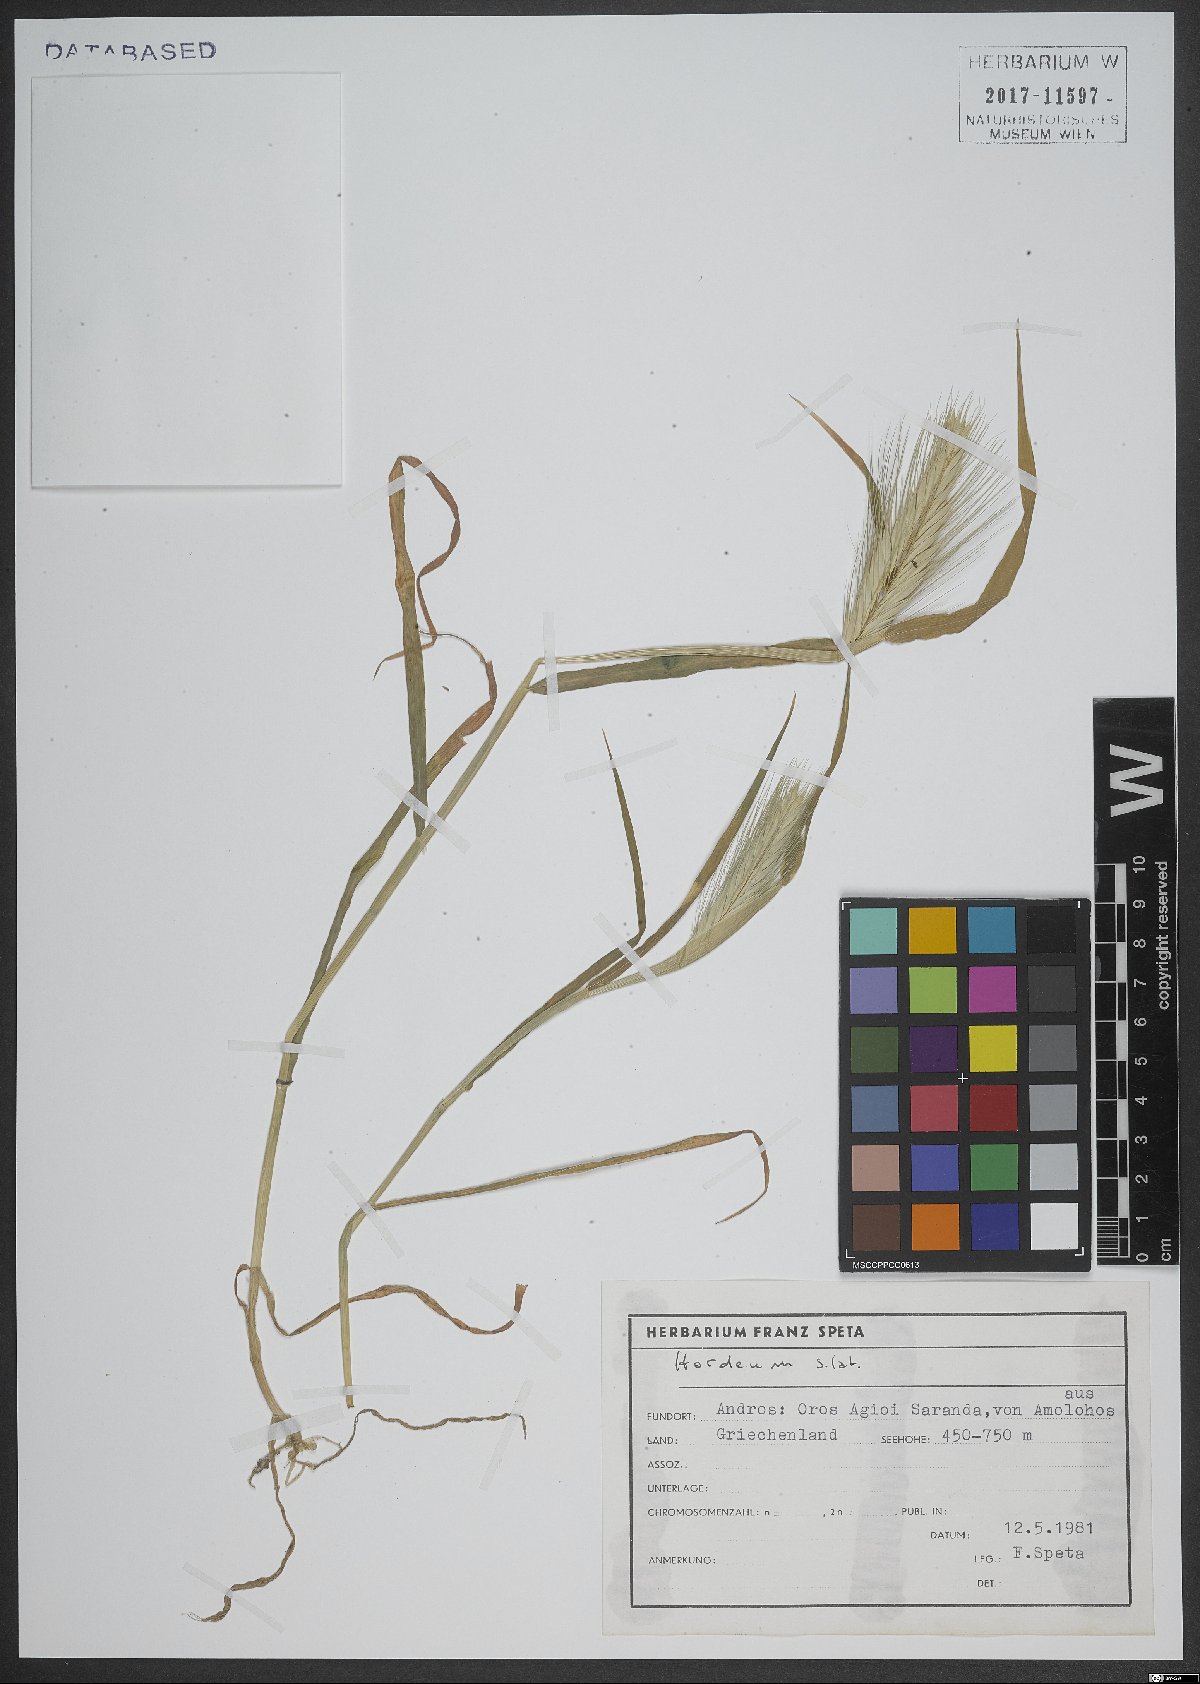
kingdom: Plantae
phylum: Tracheophyta
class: Liliopsida
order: Poales
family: Poaceae
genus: Hordeum
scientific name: Hordeum
